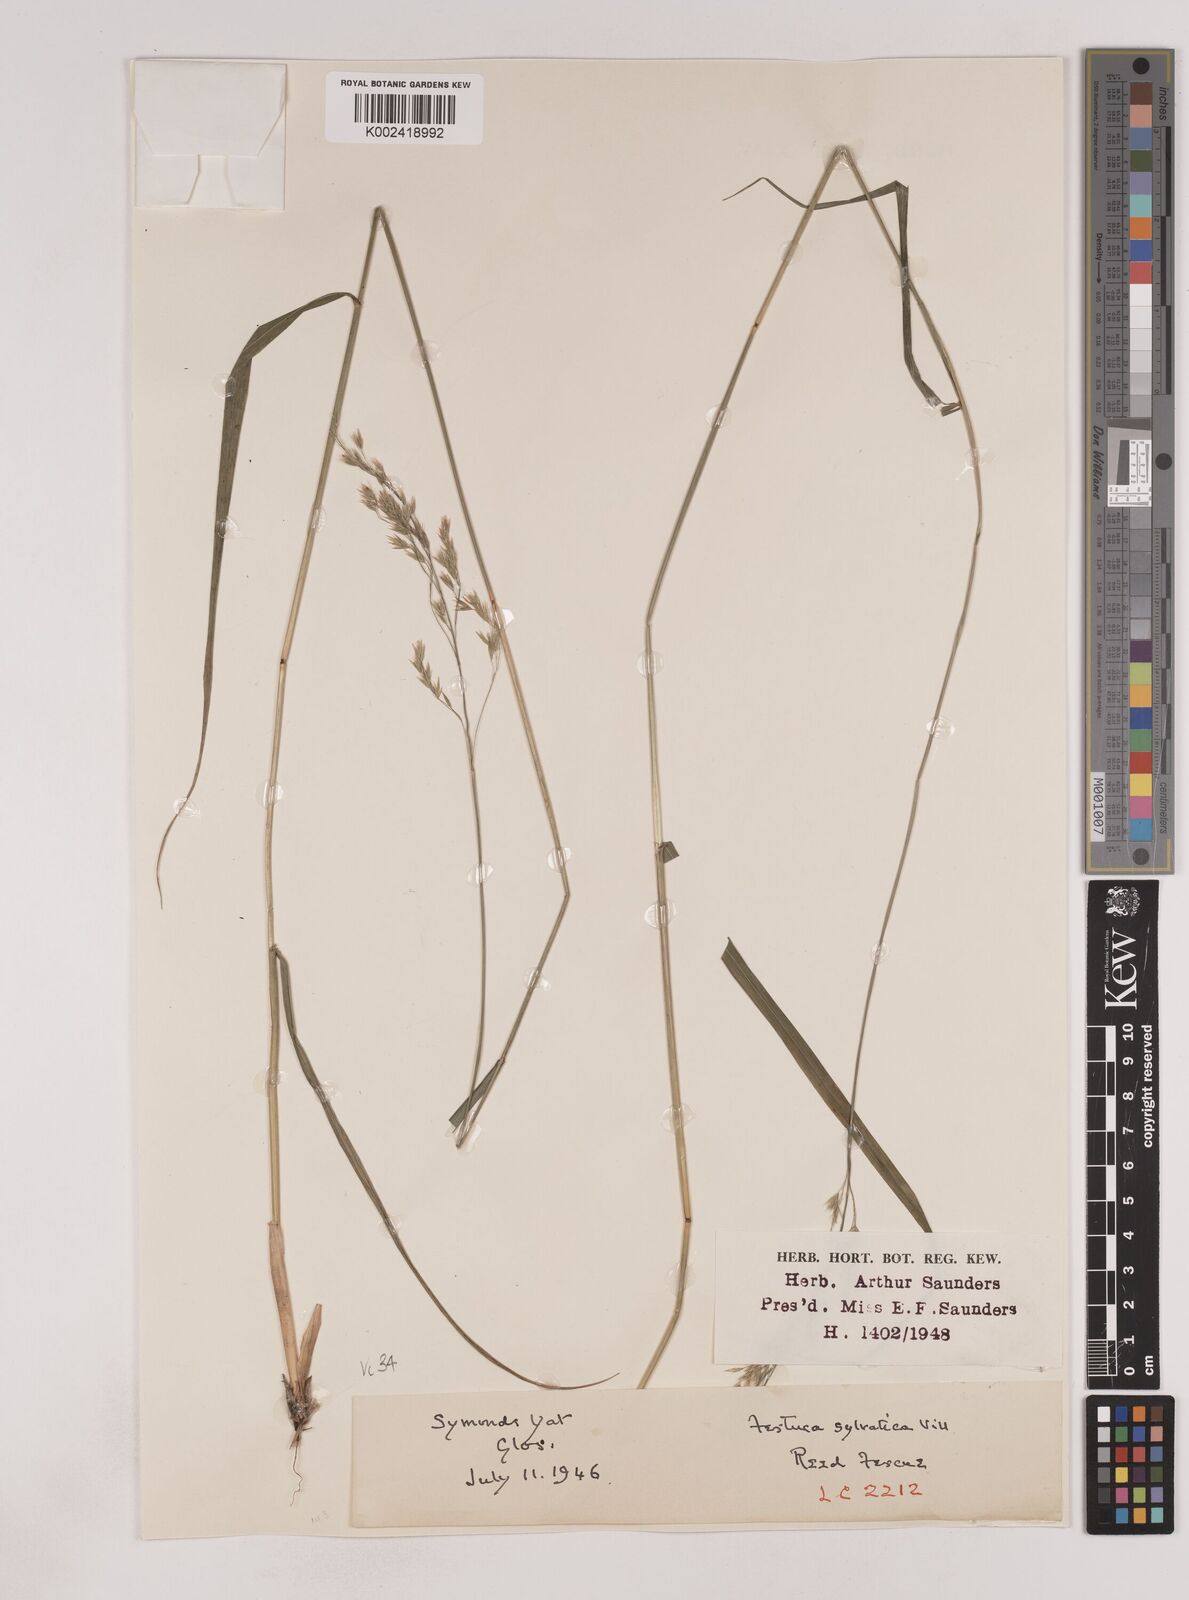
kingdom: Plantae
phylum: Tracheophyta
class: Liliopsida
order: Poales
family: Poaceae
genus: Festuca
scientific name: Festuca drymeja
